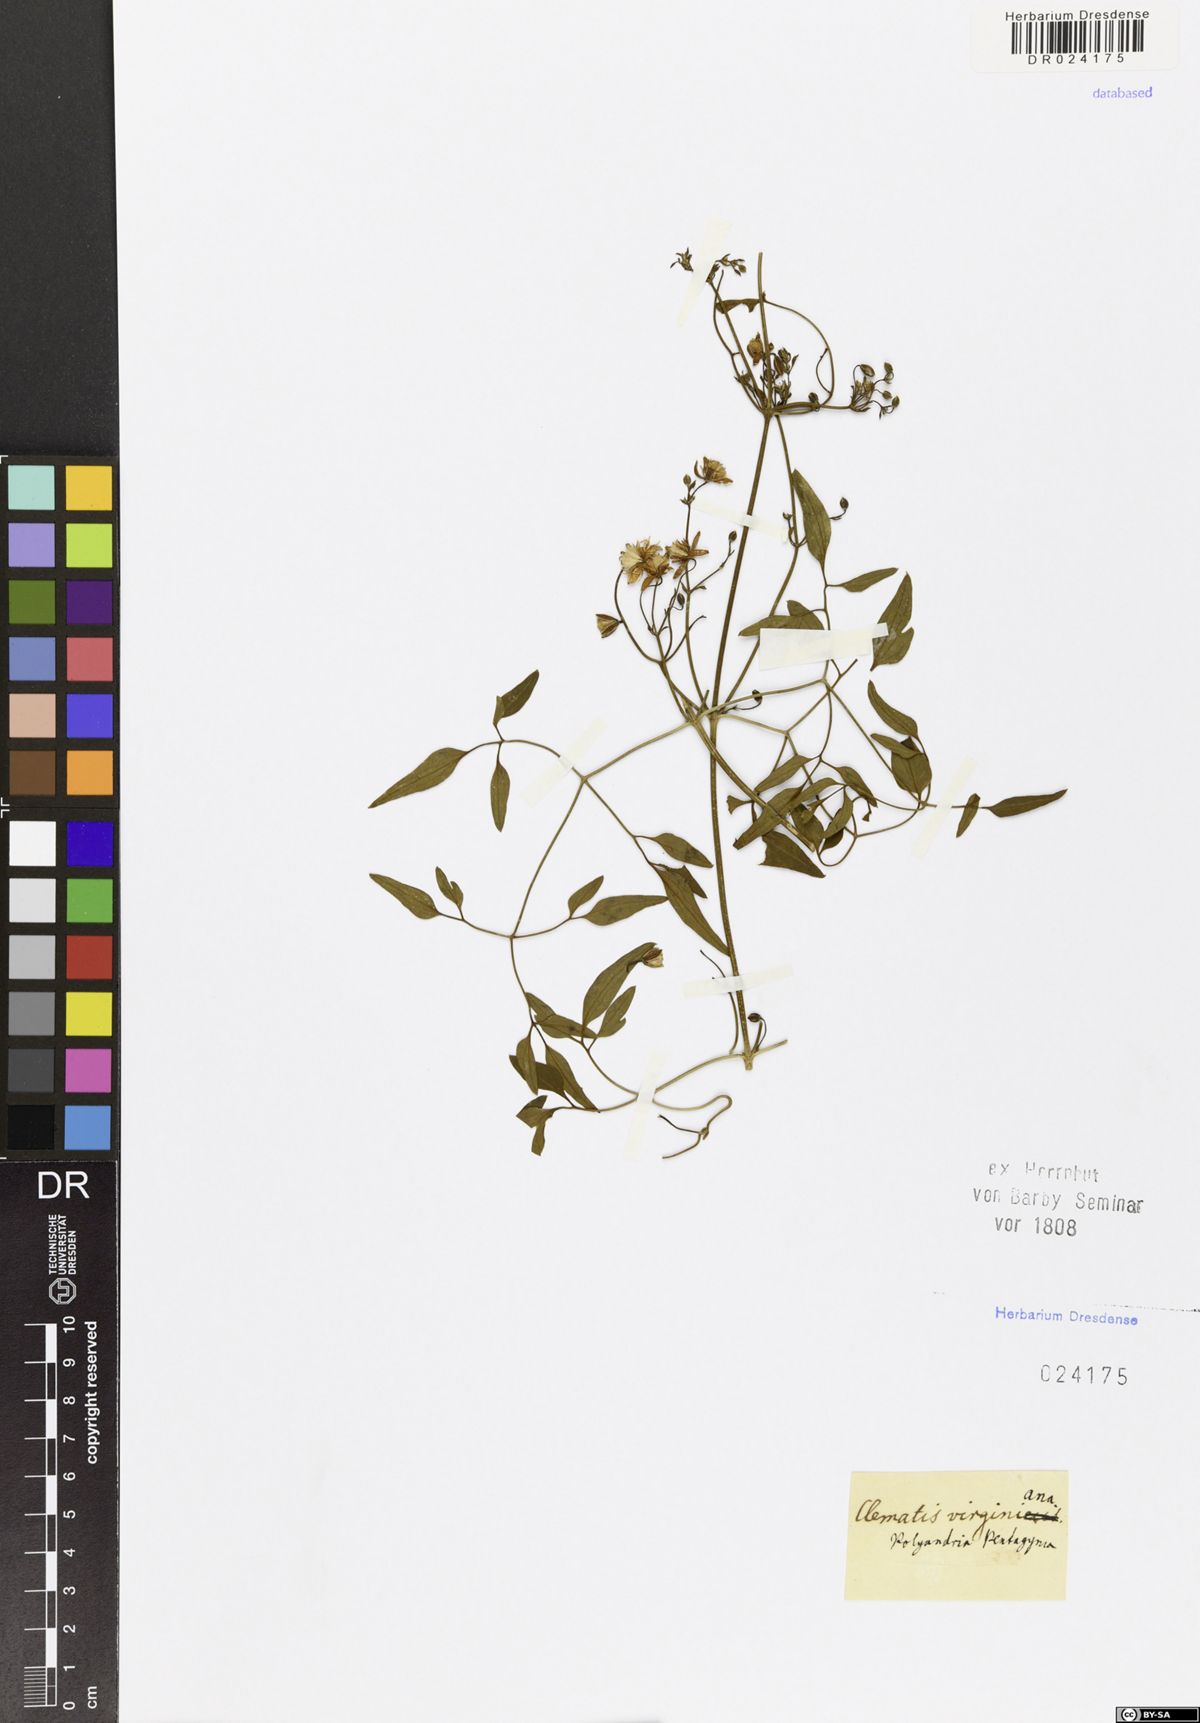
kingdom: Plantae
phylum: Tracheophyta
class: Magnoliopsida
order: Ranunculales
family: Ranunculaceae
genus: Clematis
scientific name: Clematis virginiana
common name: Virgin's-bower
